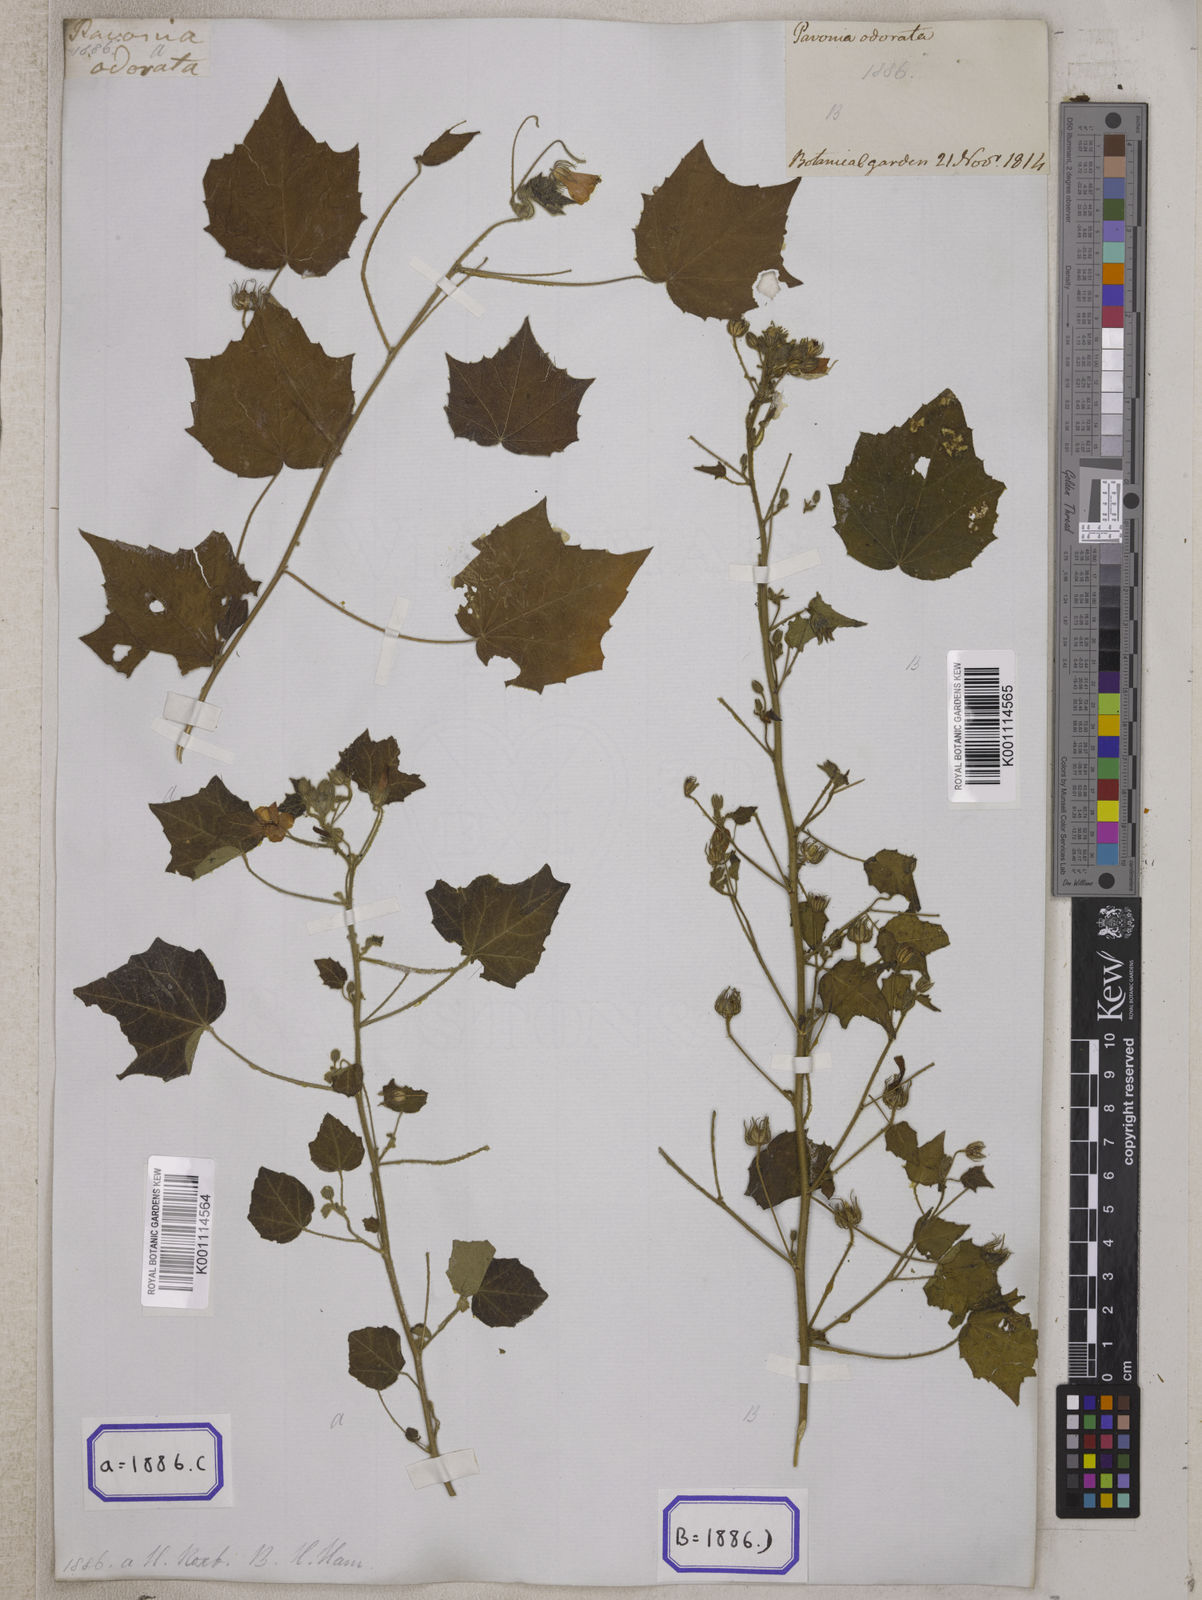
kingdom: Plantae
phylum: Tracheophyta
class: Magnoliopsida
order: Malvales
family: Malvaceae
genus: Pavonia
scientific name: Pavonia zeylonica
